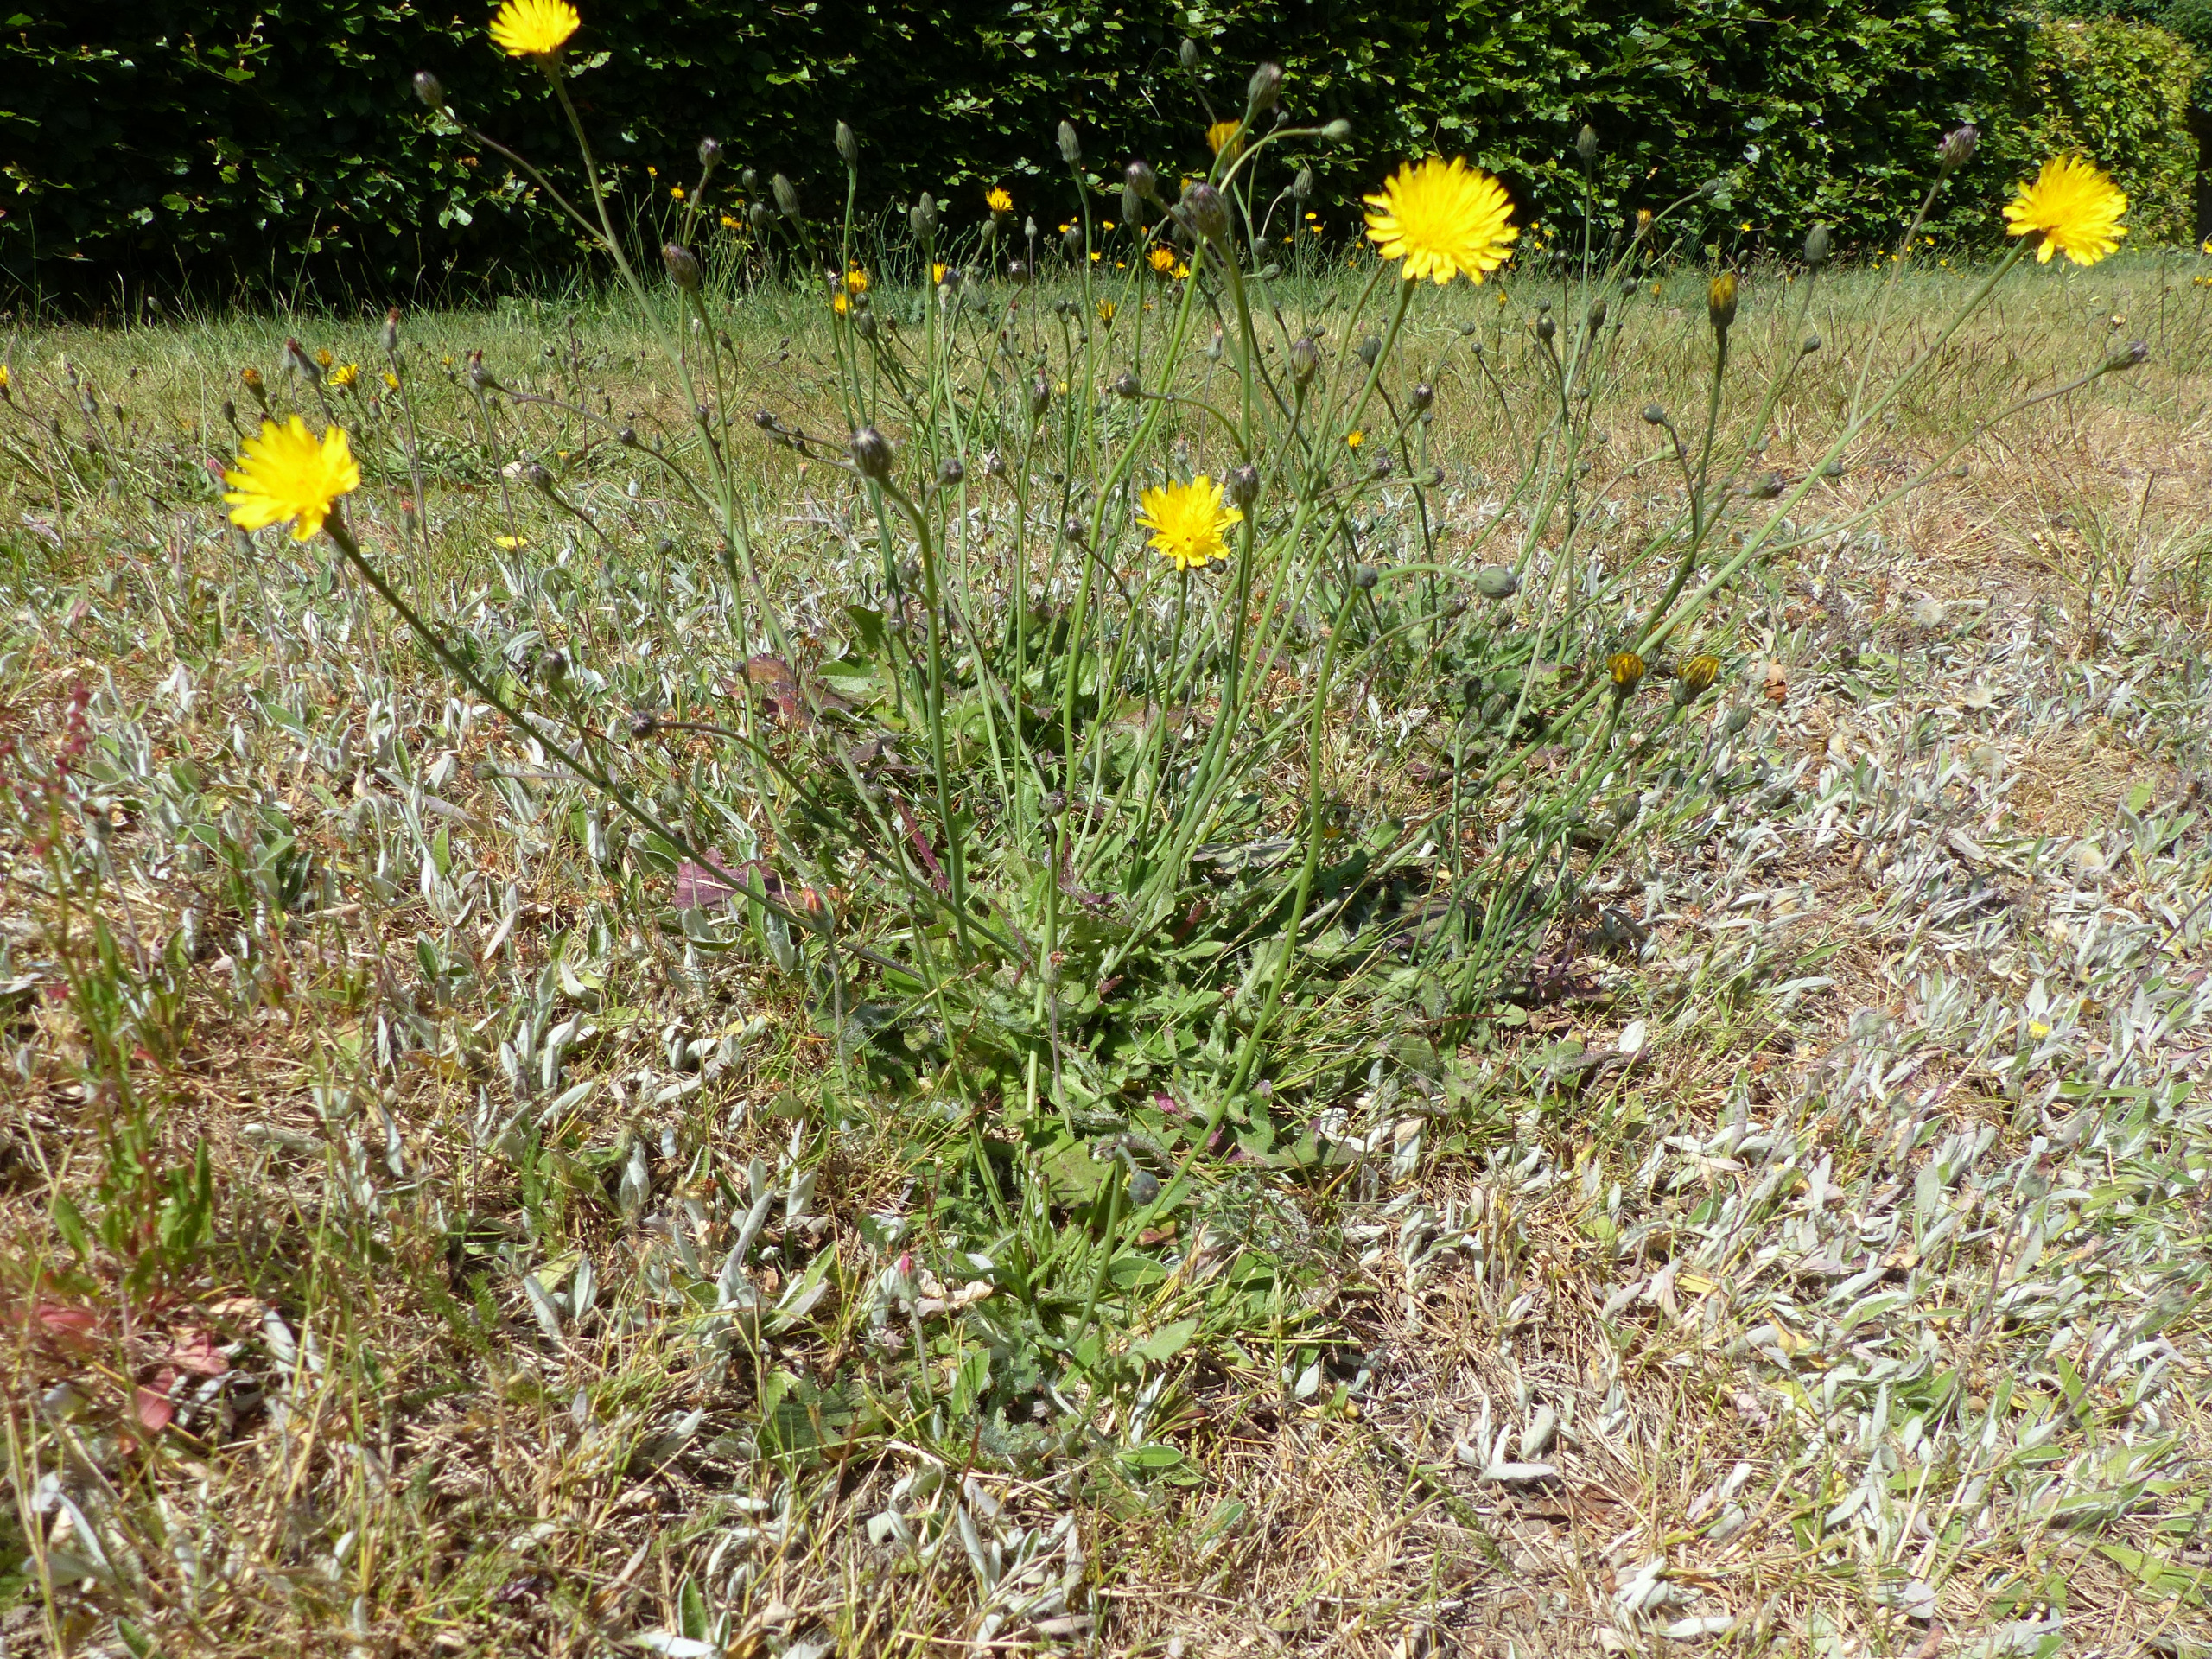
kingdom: Plantae
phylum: Tracheophyta
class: Magnoliopsida
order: Asterales
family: Asteraceae
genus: Hypochaeris
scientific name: Hypochaeris radicata
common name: Almindelig kongepen
